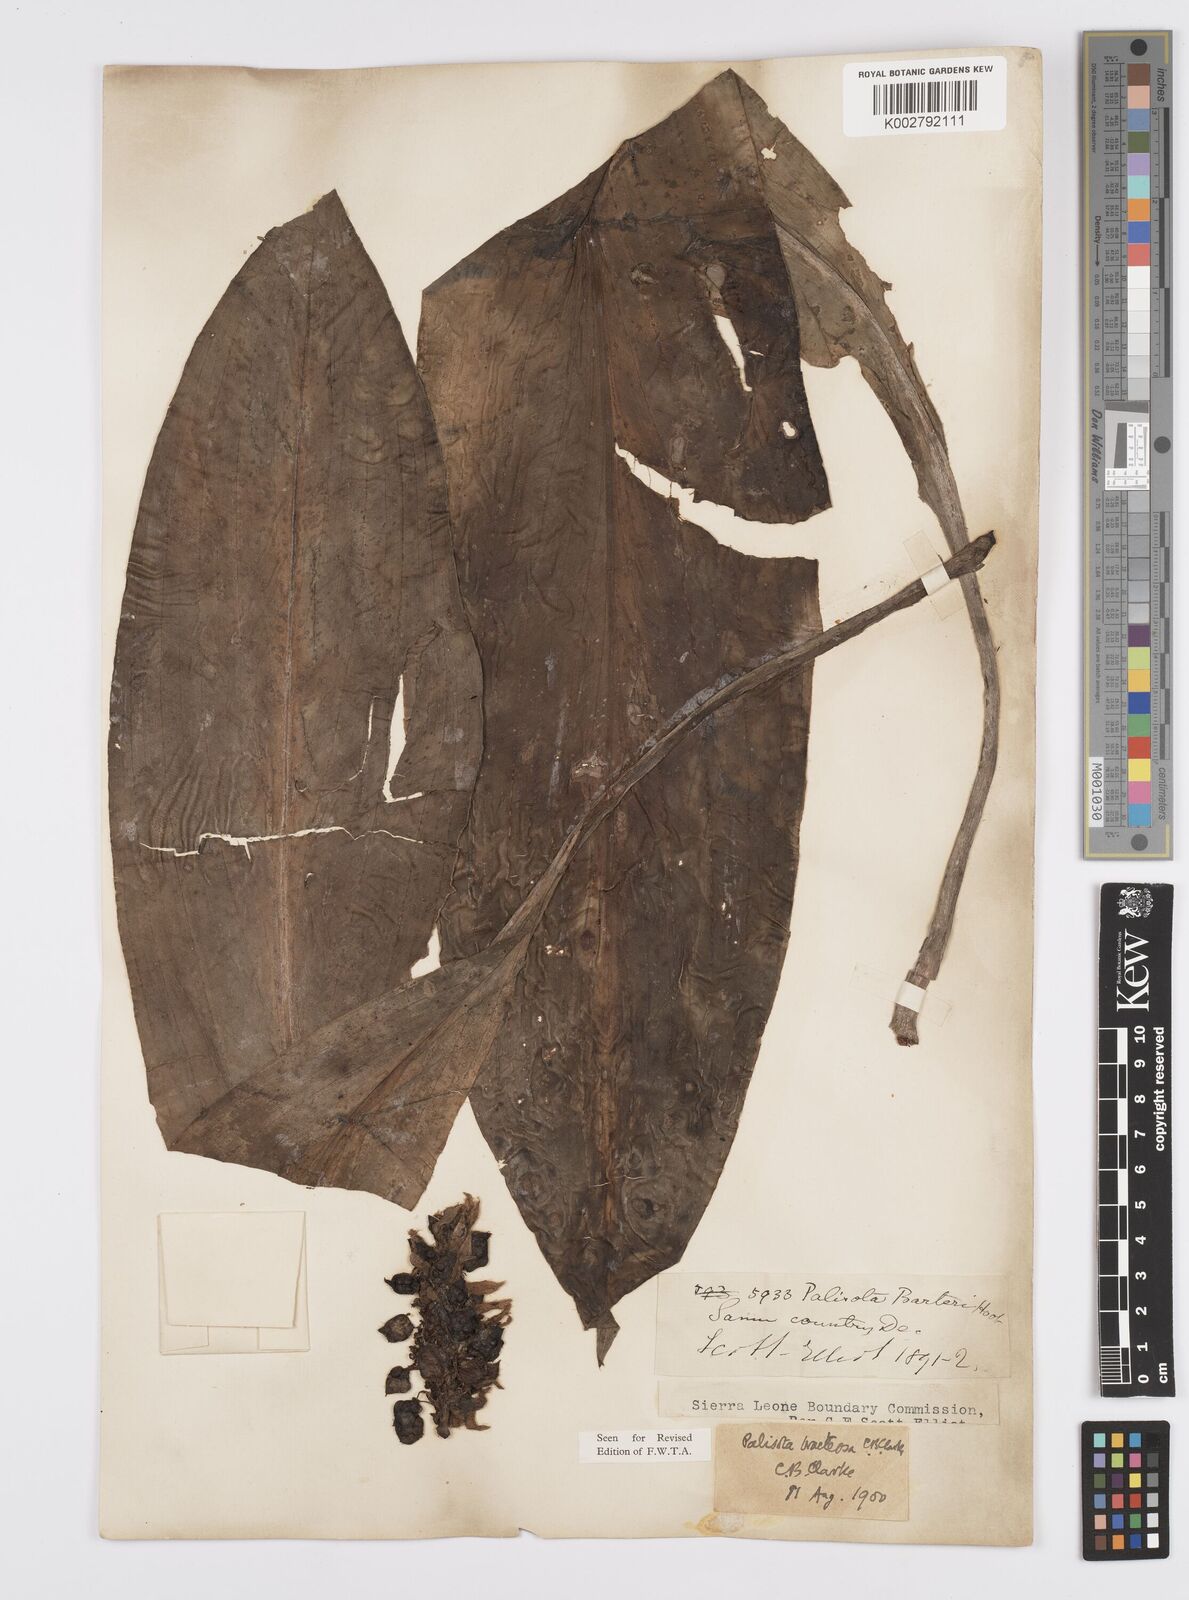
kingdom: Plantae
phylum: Tracheophyta
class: Liliopsida
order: Commelinales
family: Commelinaceae
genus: Palisota
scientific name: Palisota bracteosa
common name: Palisota
